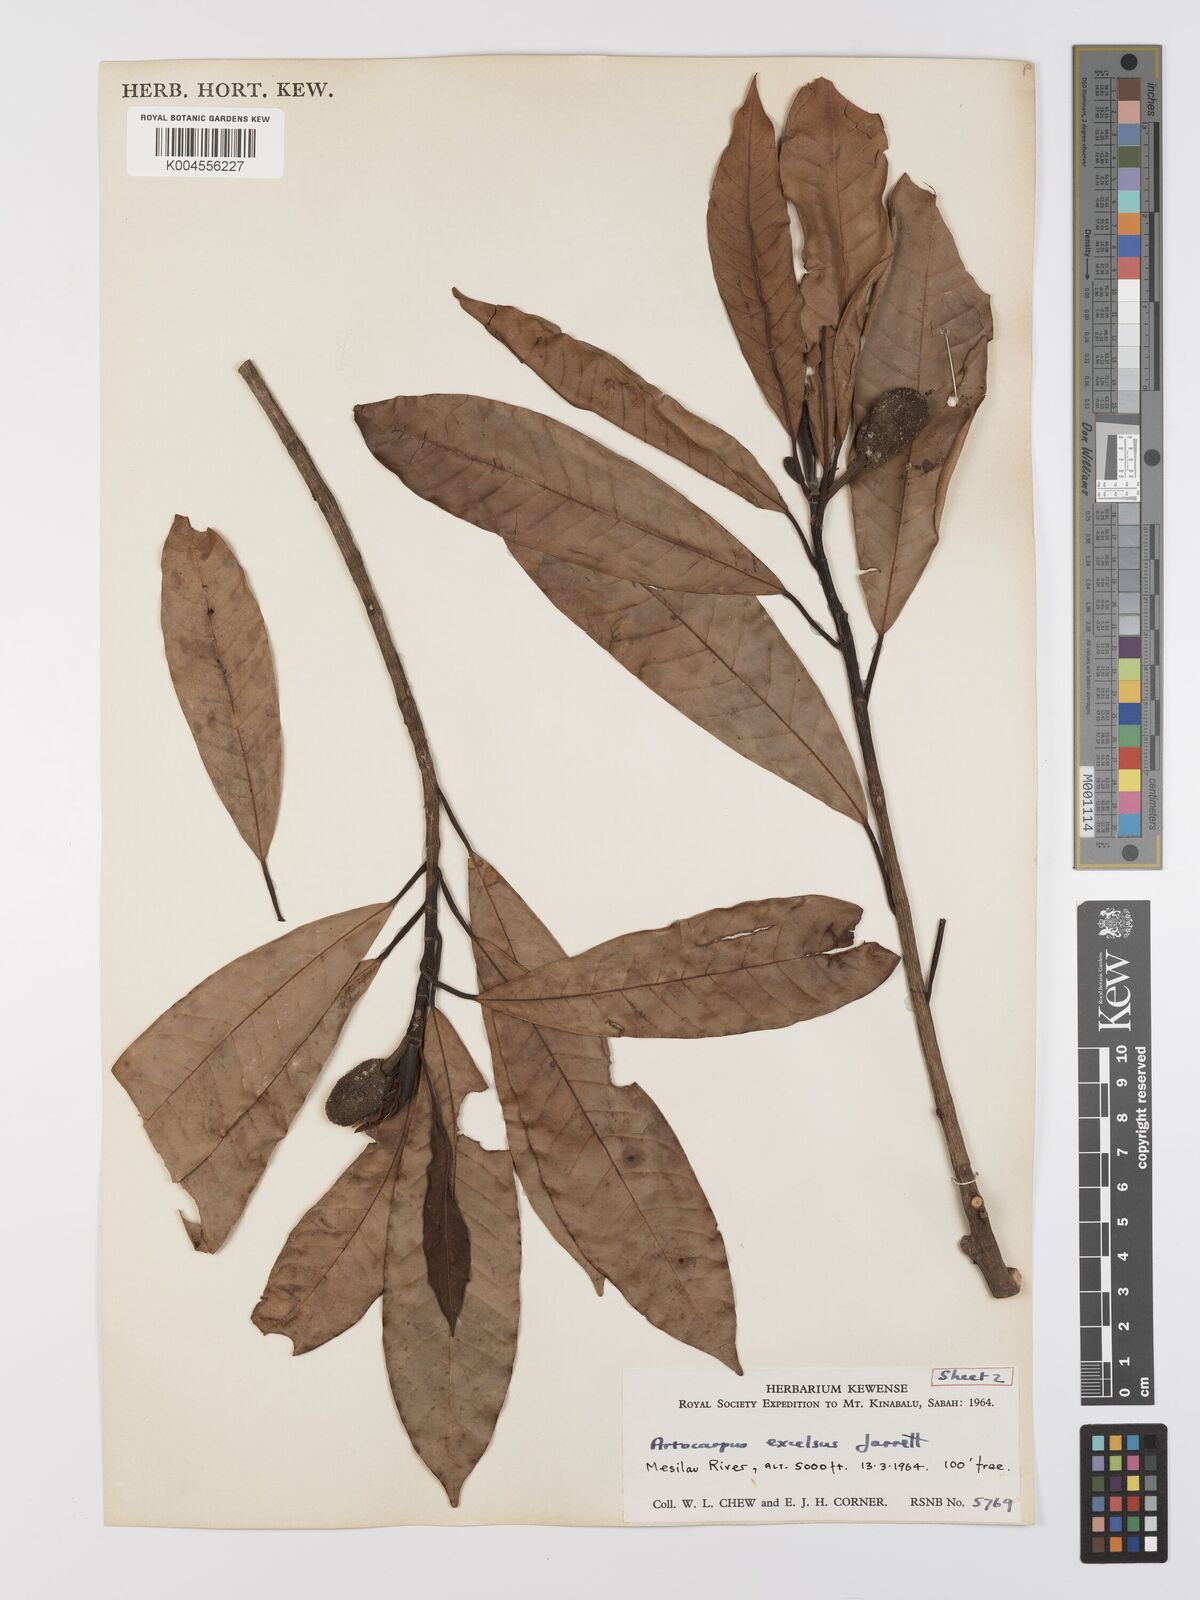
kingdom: Plantae
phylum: Tracheophyta
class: Magnoliopsida
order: Rosales
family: Moraceae
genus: Artocarpus
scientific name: Artocarpus excelsus
